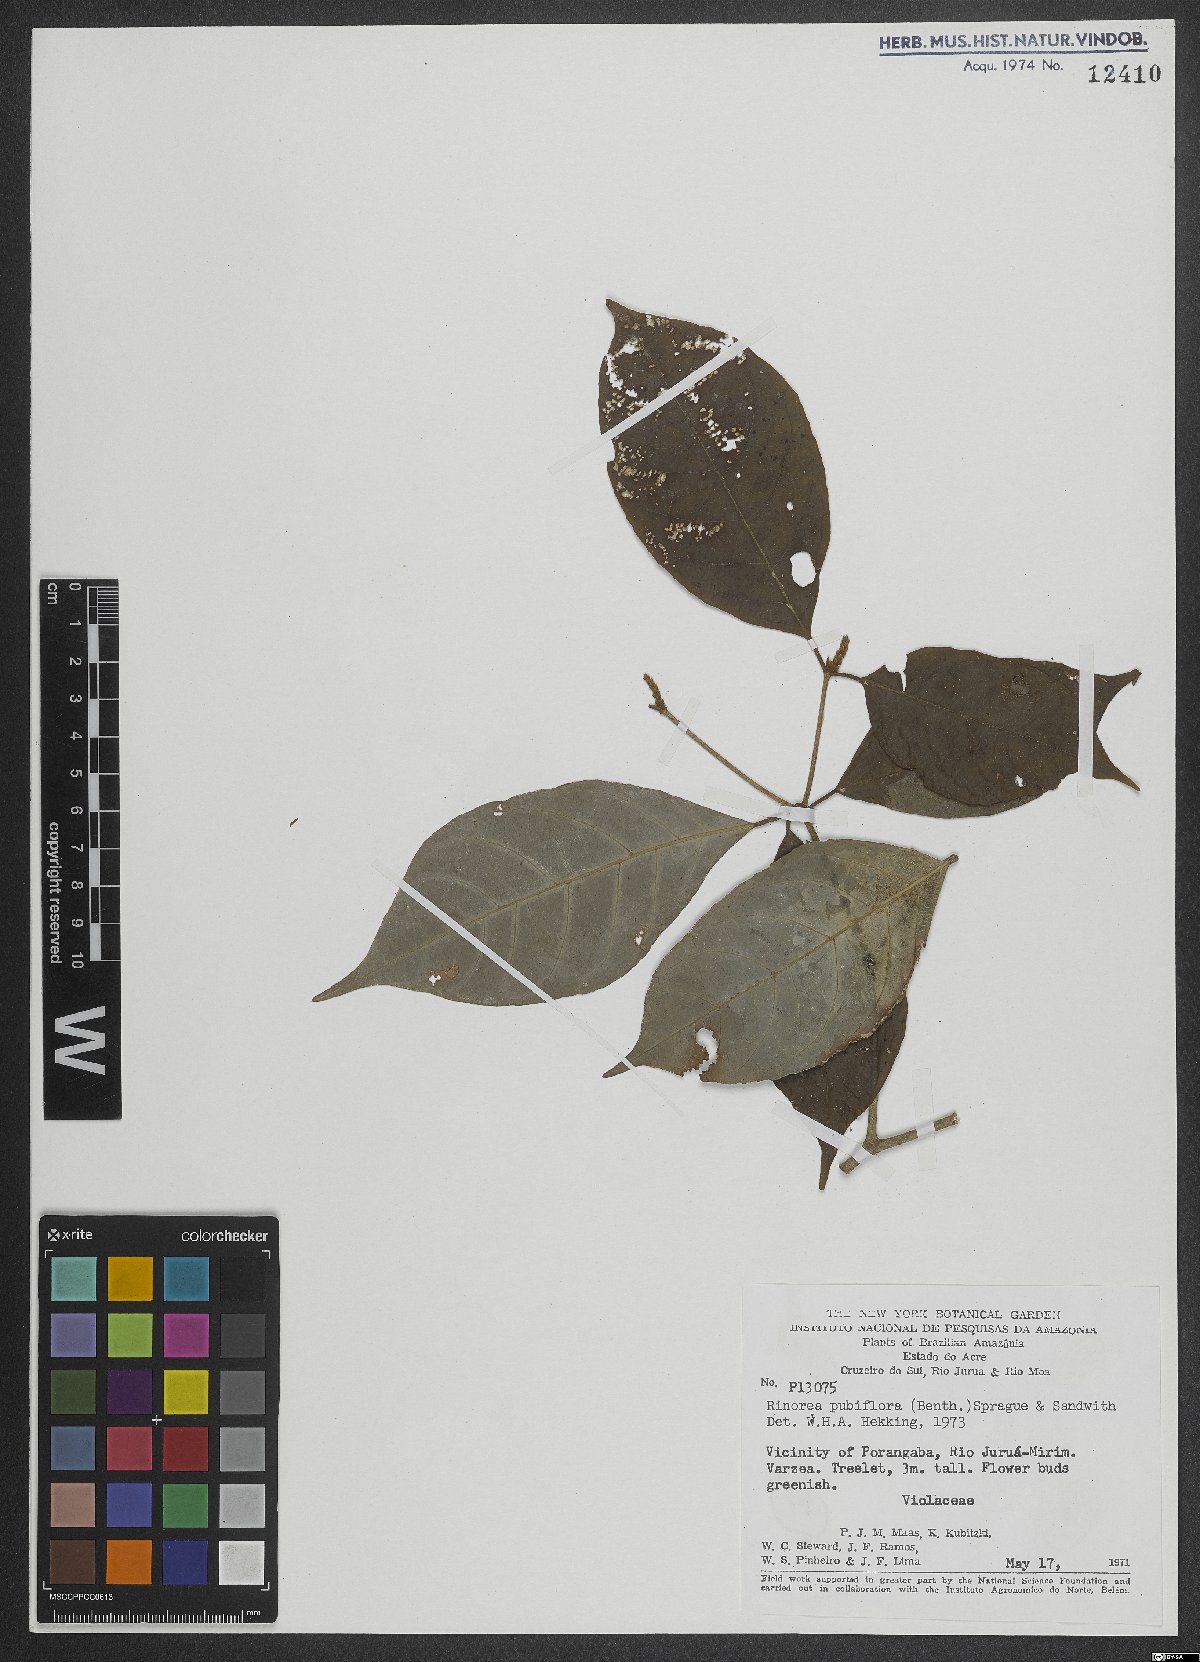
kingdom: Plantae
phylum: Tracheophyta
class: Magnoliopsida
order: Malpighiales
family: Violaceae
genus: Rinorea
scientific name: Rinorea pubiflora
